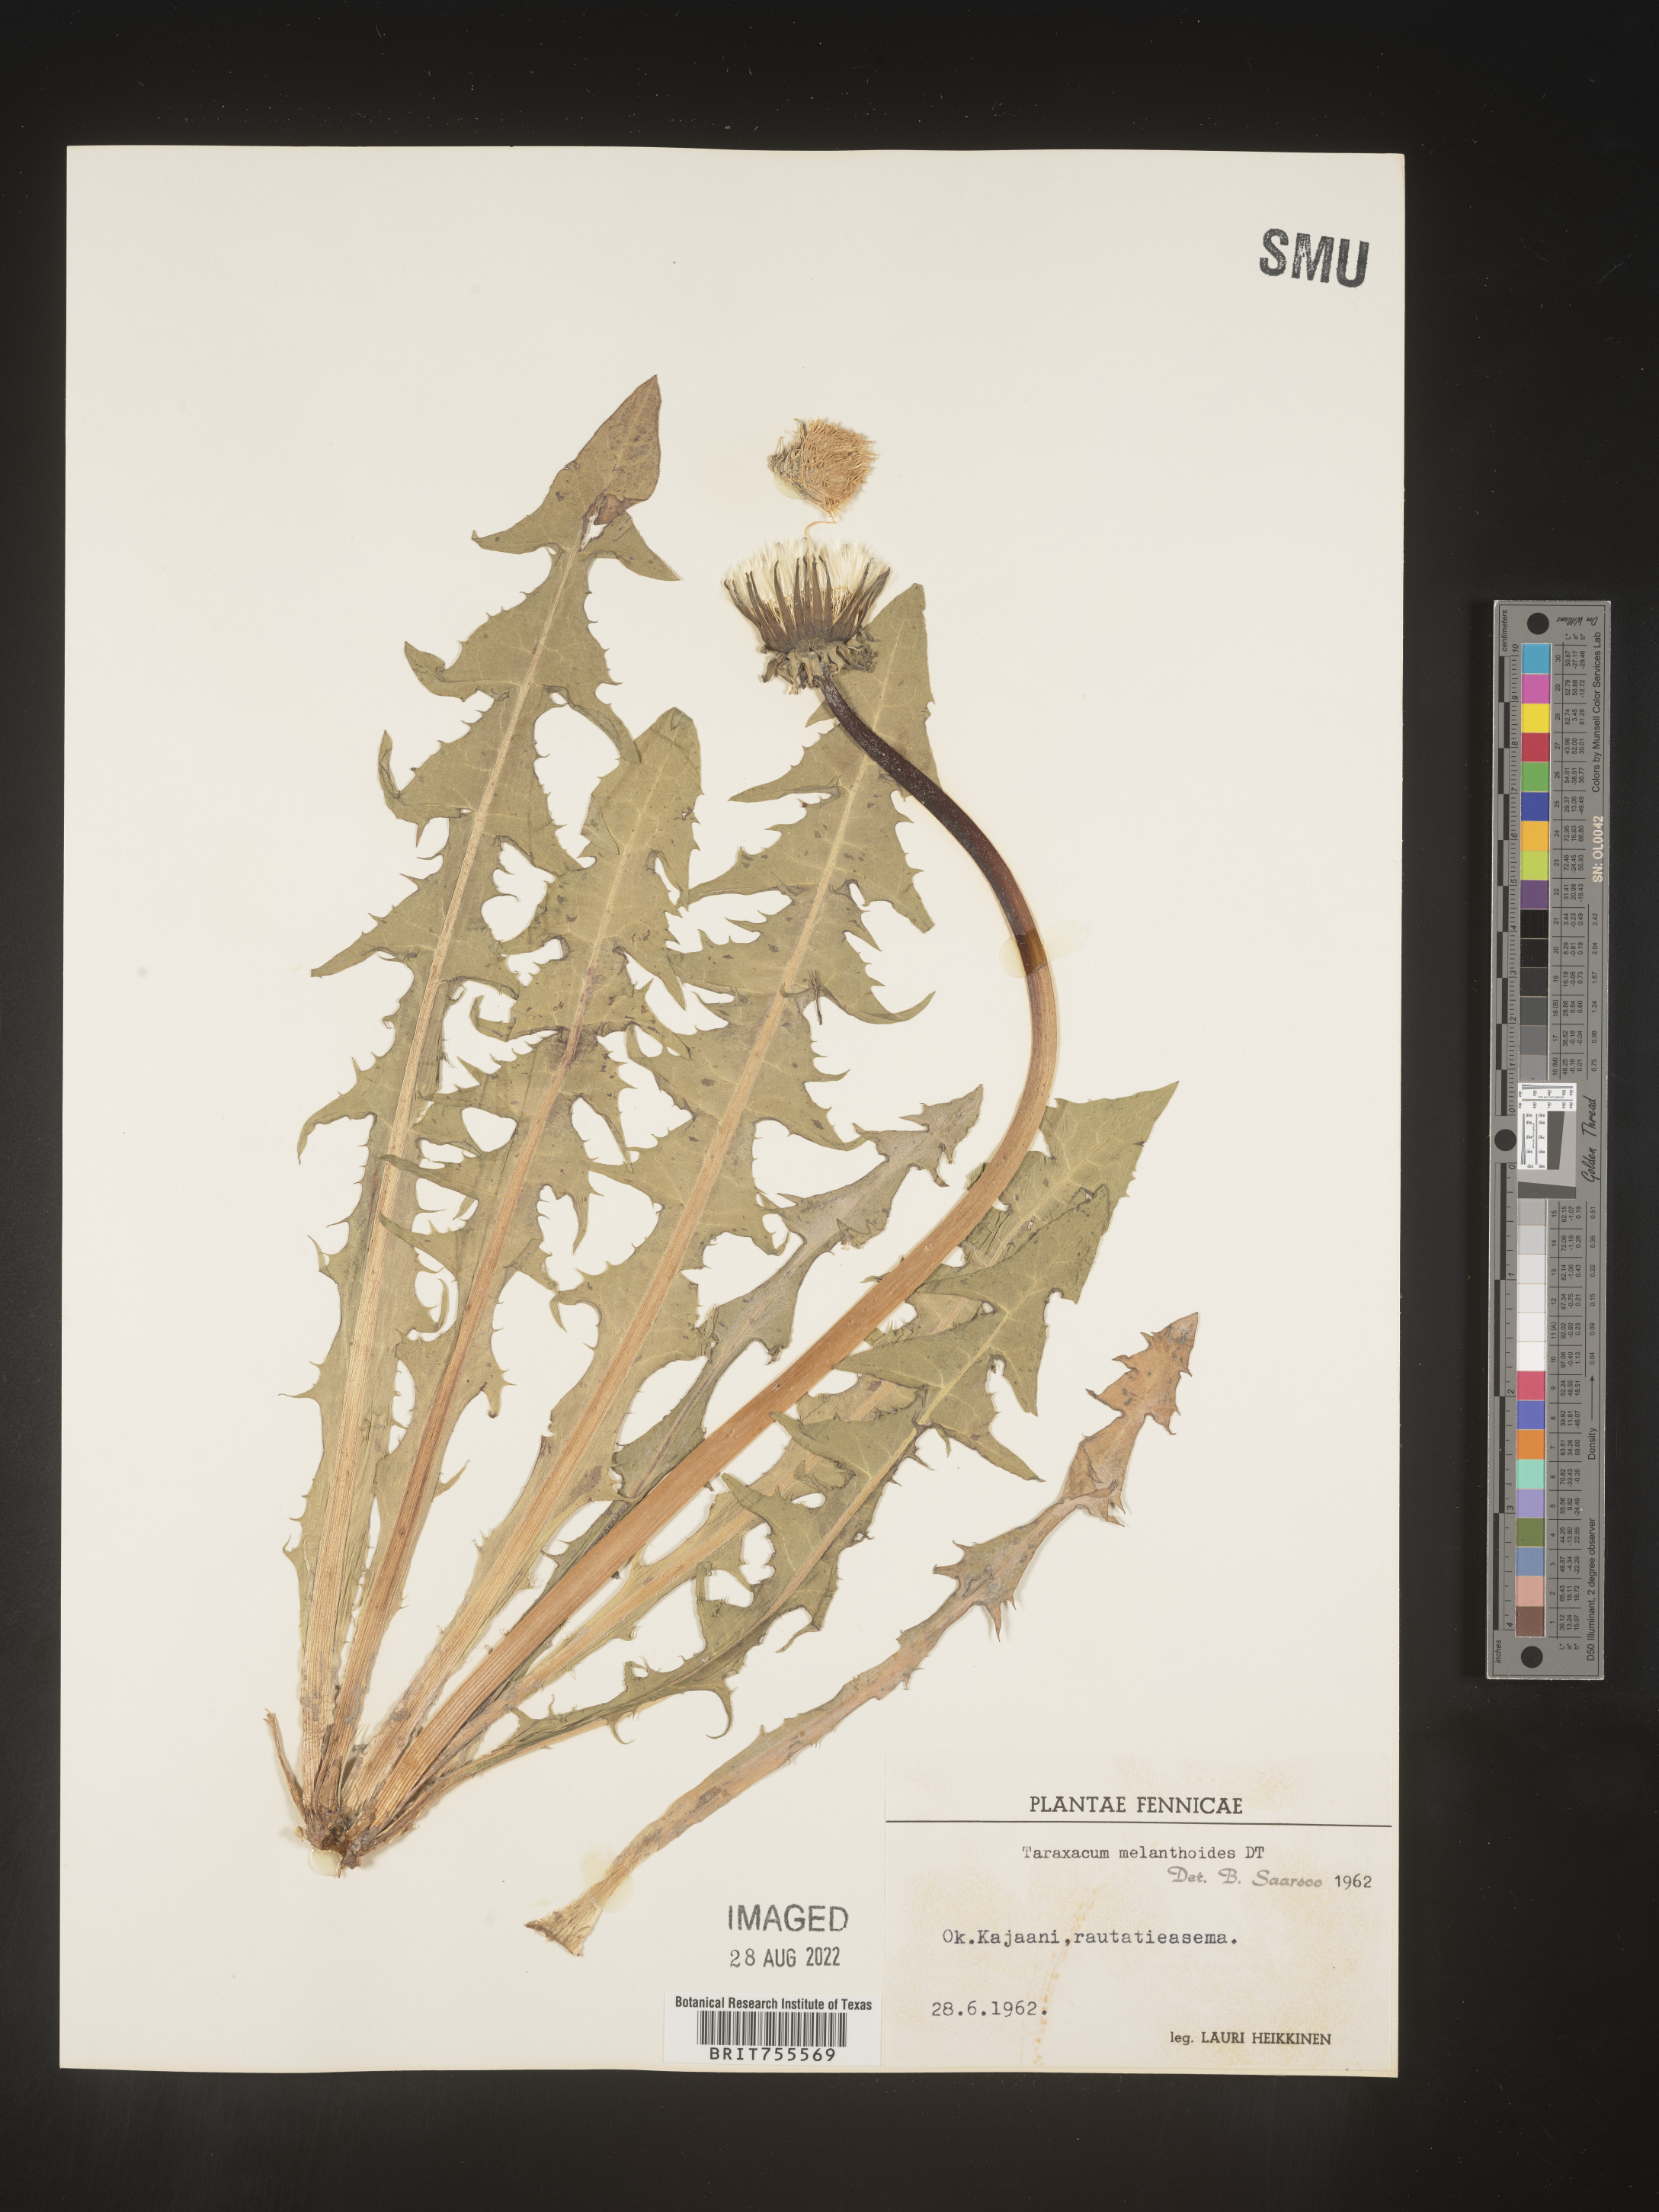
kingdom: Plantae
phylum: Tracheophyta
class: Magnoliopsida
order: Asterales
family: Asteraceae
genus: Taraxacum
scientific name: Taraxacum
